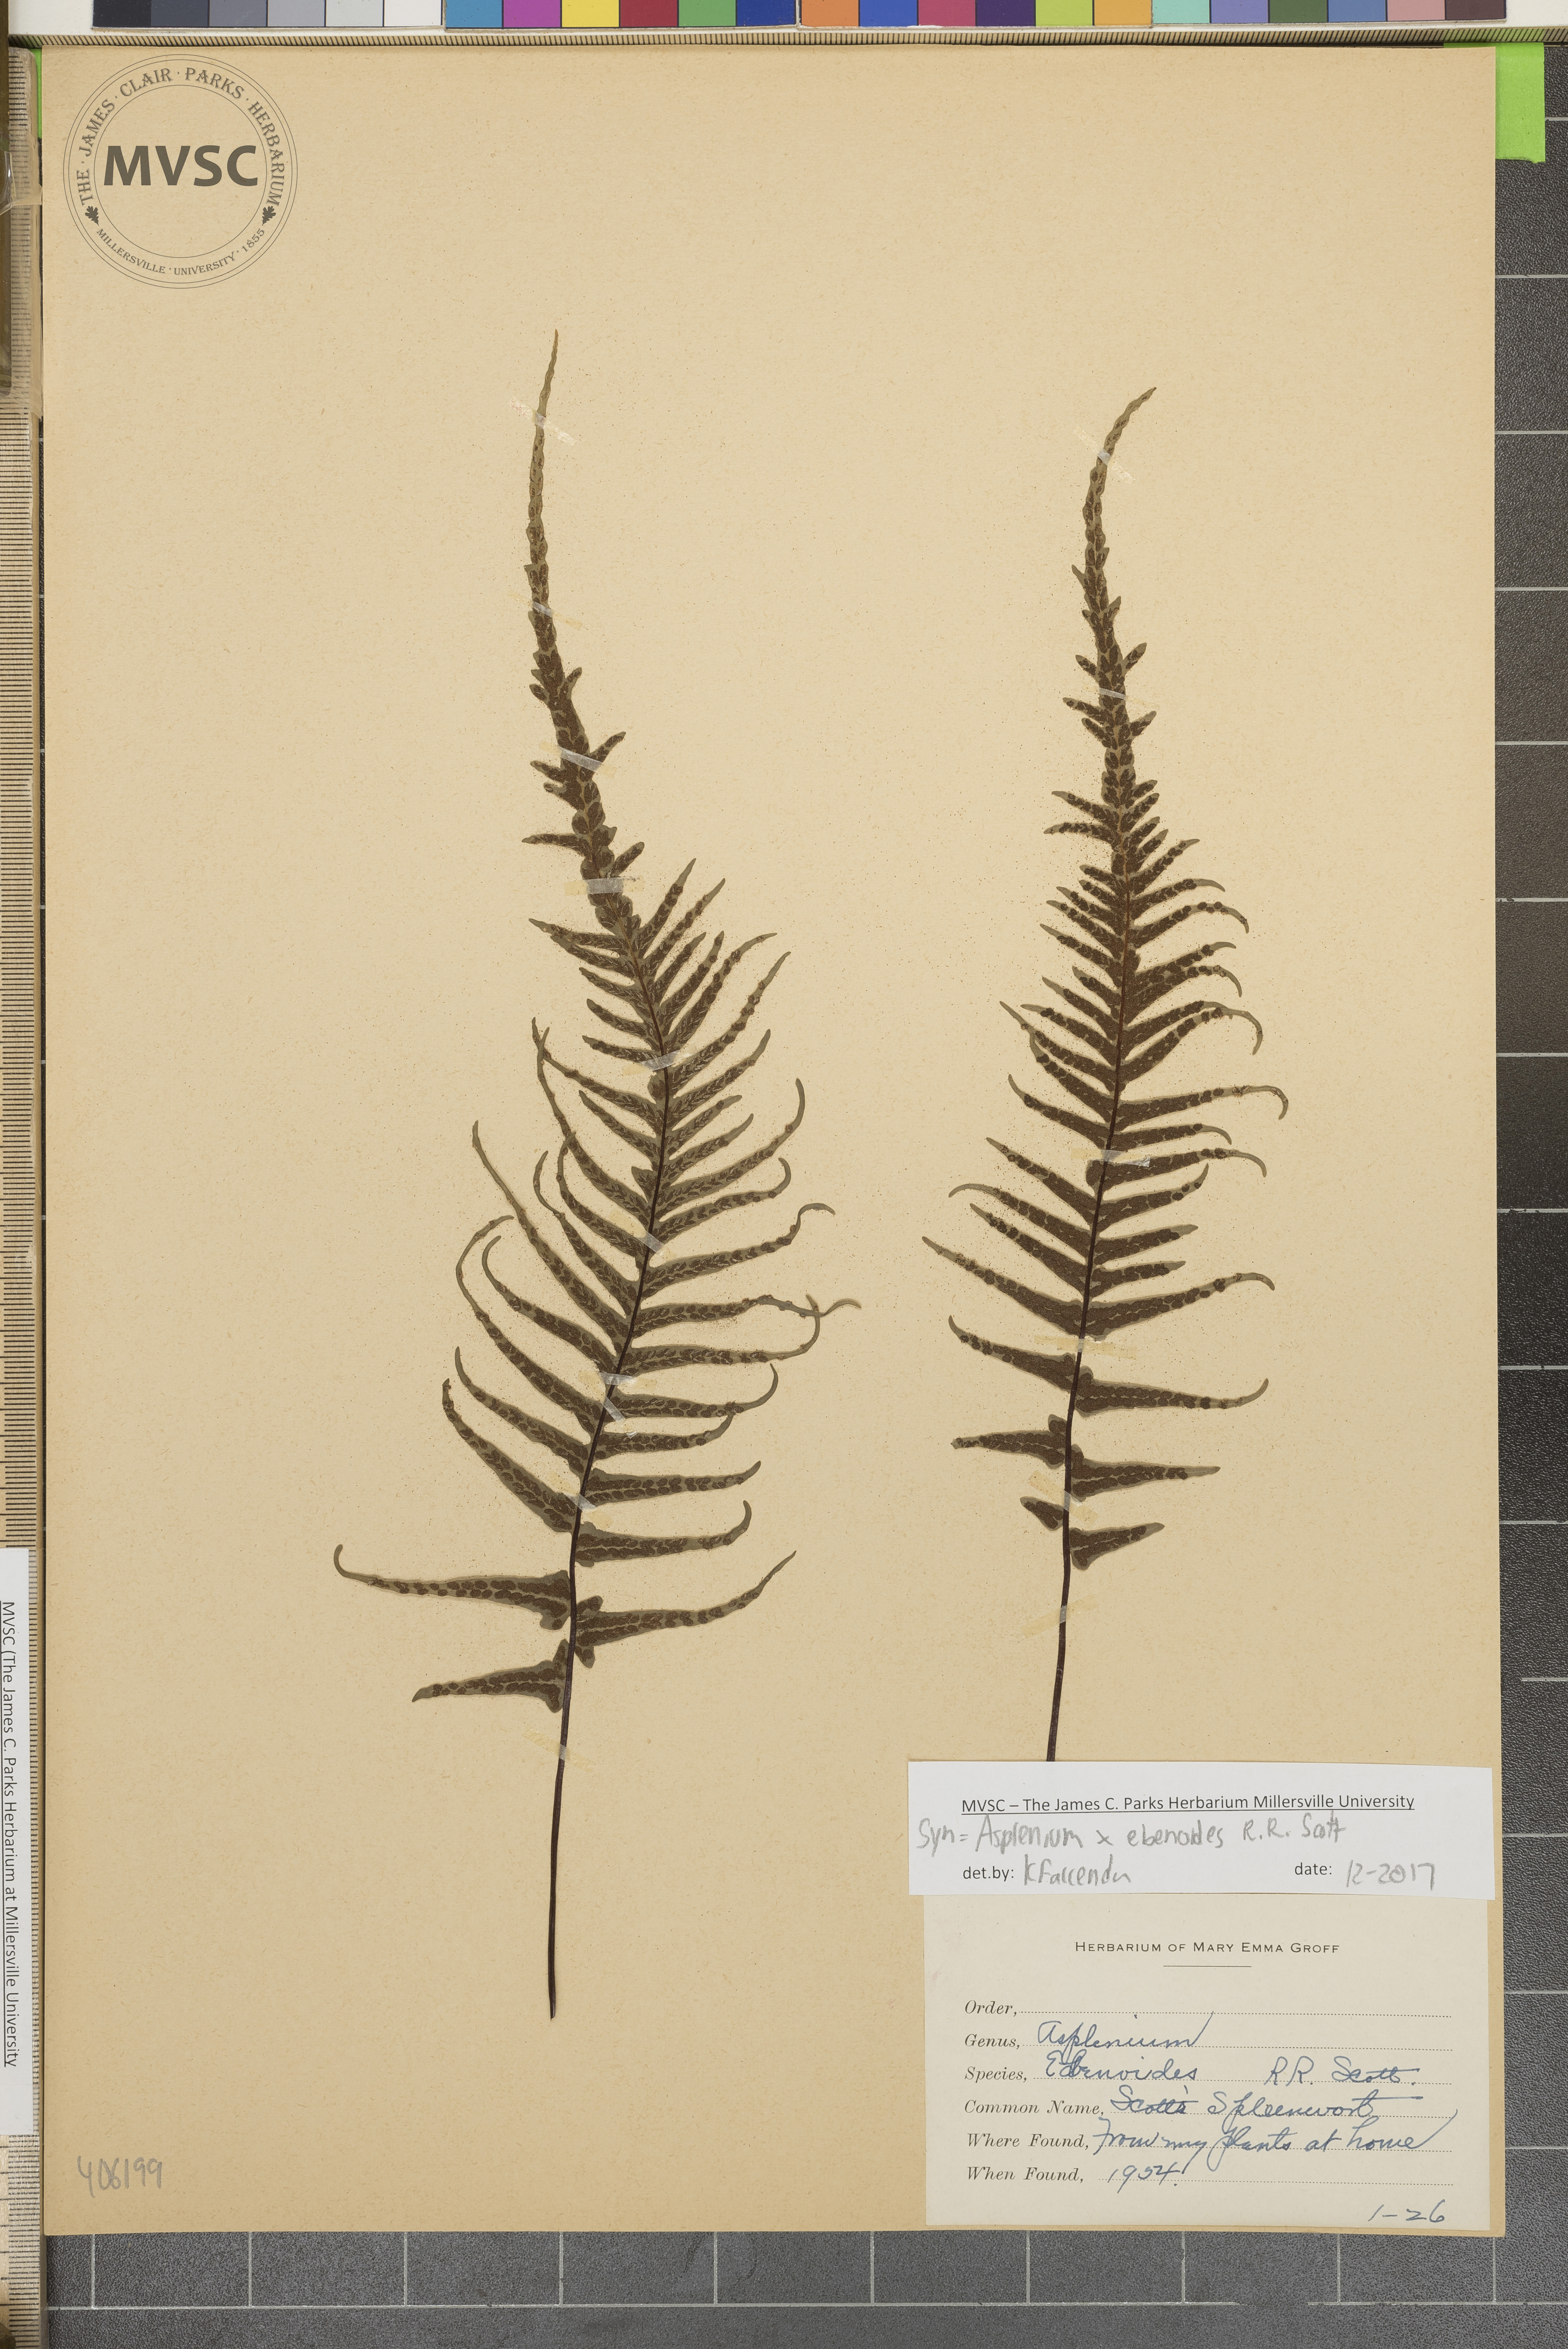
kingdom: Plantae
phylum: Tracheophyta
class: Polypodiopsida
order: Polypodiales
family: Aspleniaceae
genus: Asplenium
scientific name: Asplenium ebenoides
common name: Dragon-tail fern
